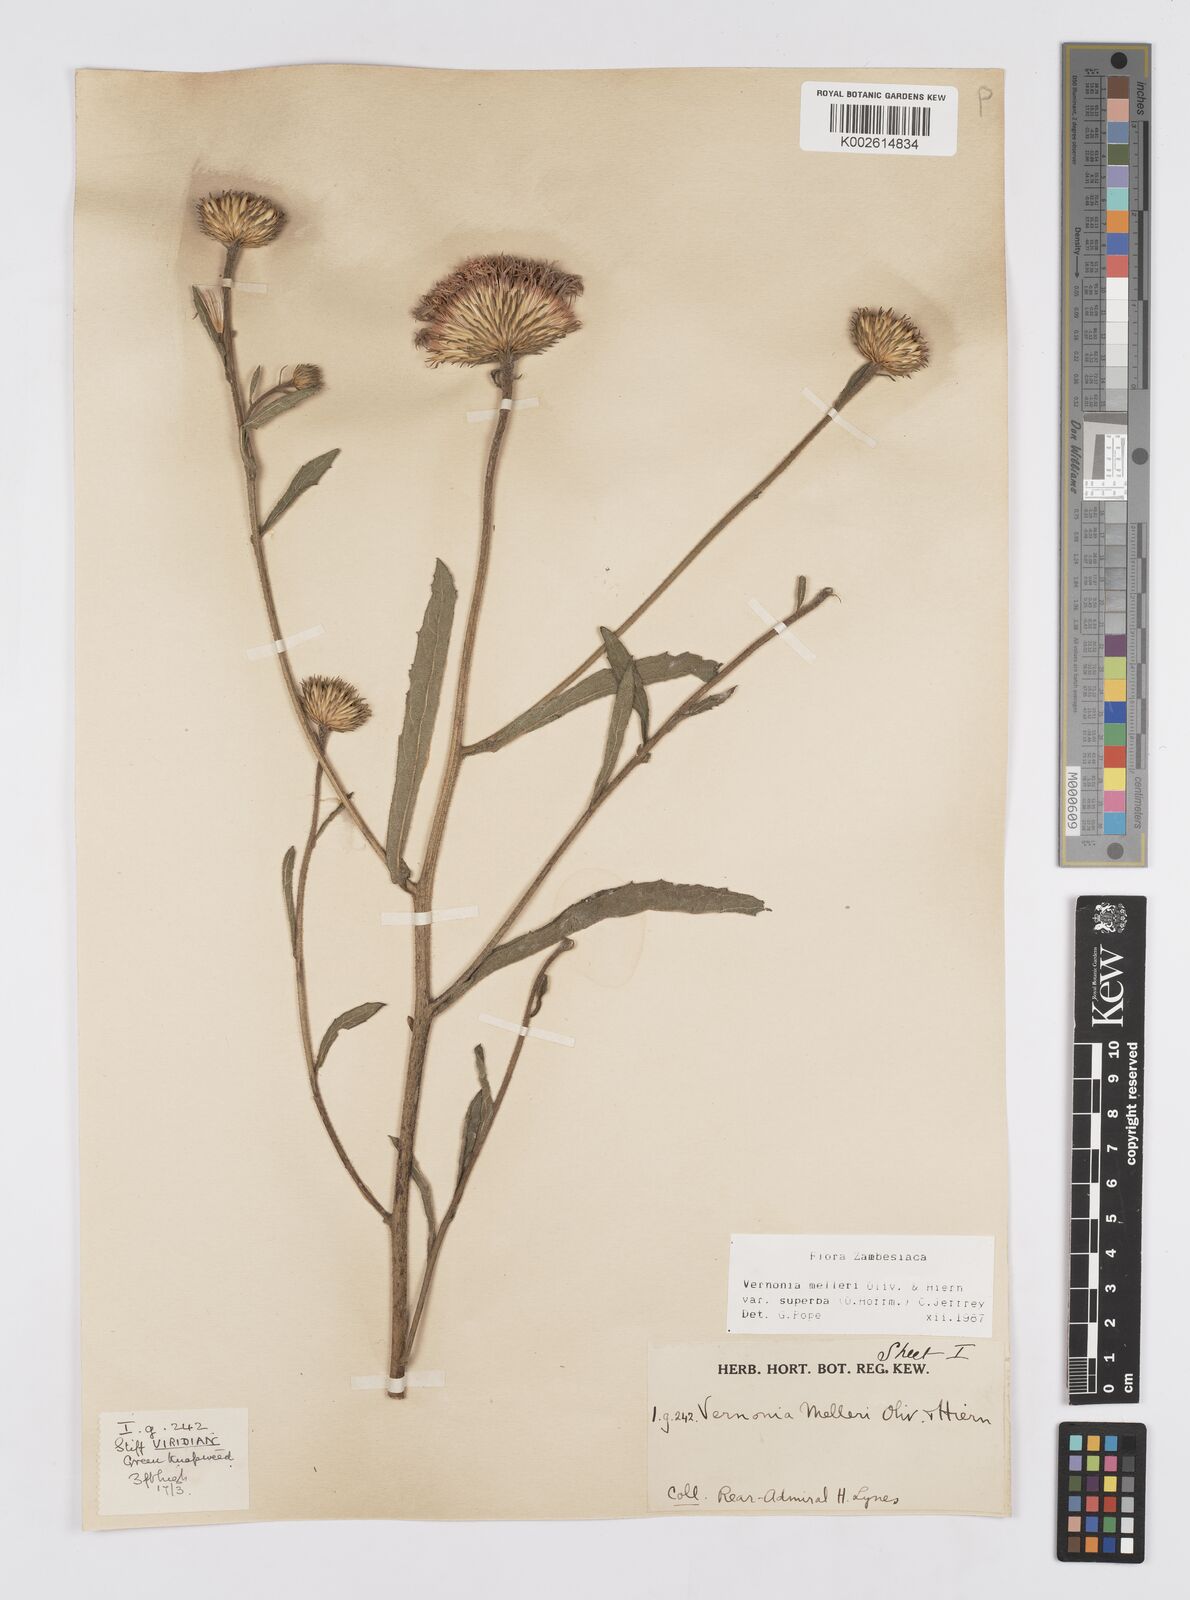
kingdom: Plantae
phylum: Tracheophyta
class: Magnoliopsida
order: Asterales
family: Asteraceae
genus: Linzia
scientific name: Linzia melleri
